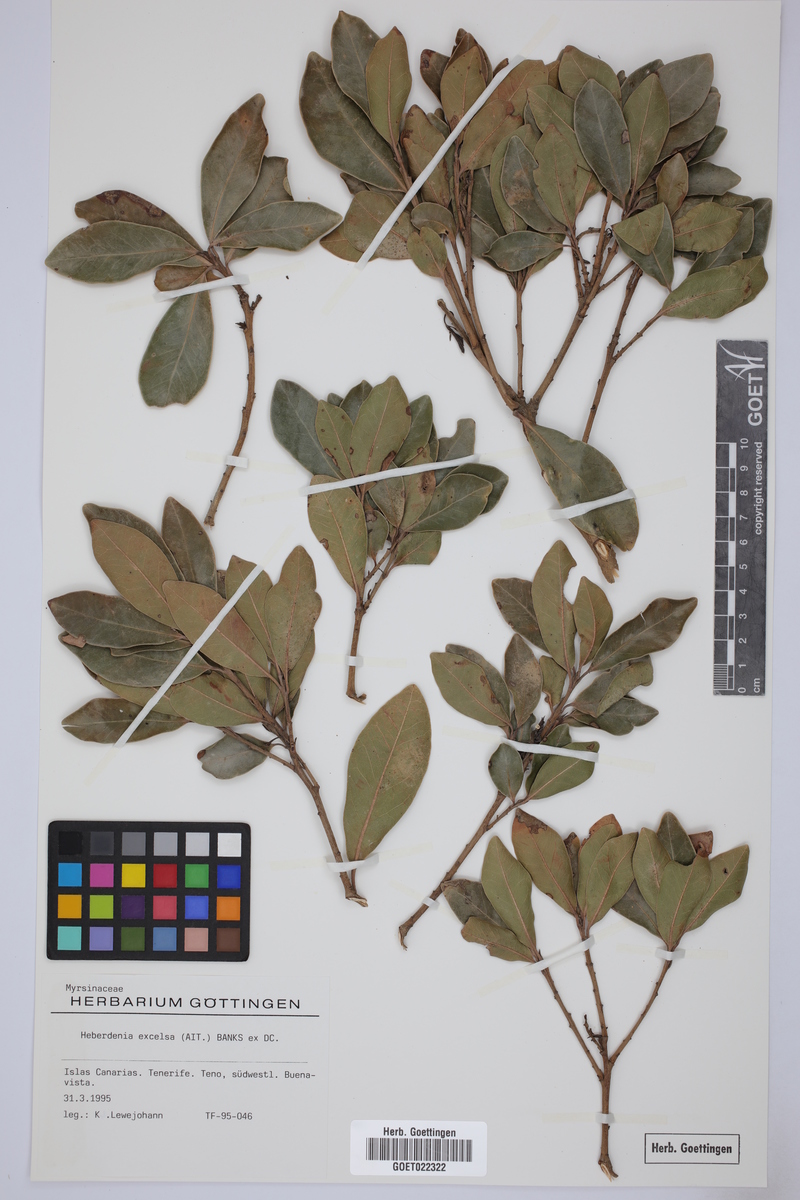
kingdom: Plantae
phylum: Tracheophyta
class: Magnoliopsida
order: Ericales
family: Primulaceae
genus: Heberdenia
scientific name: Heberdenia excelsa
